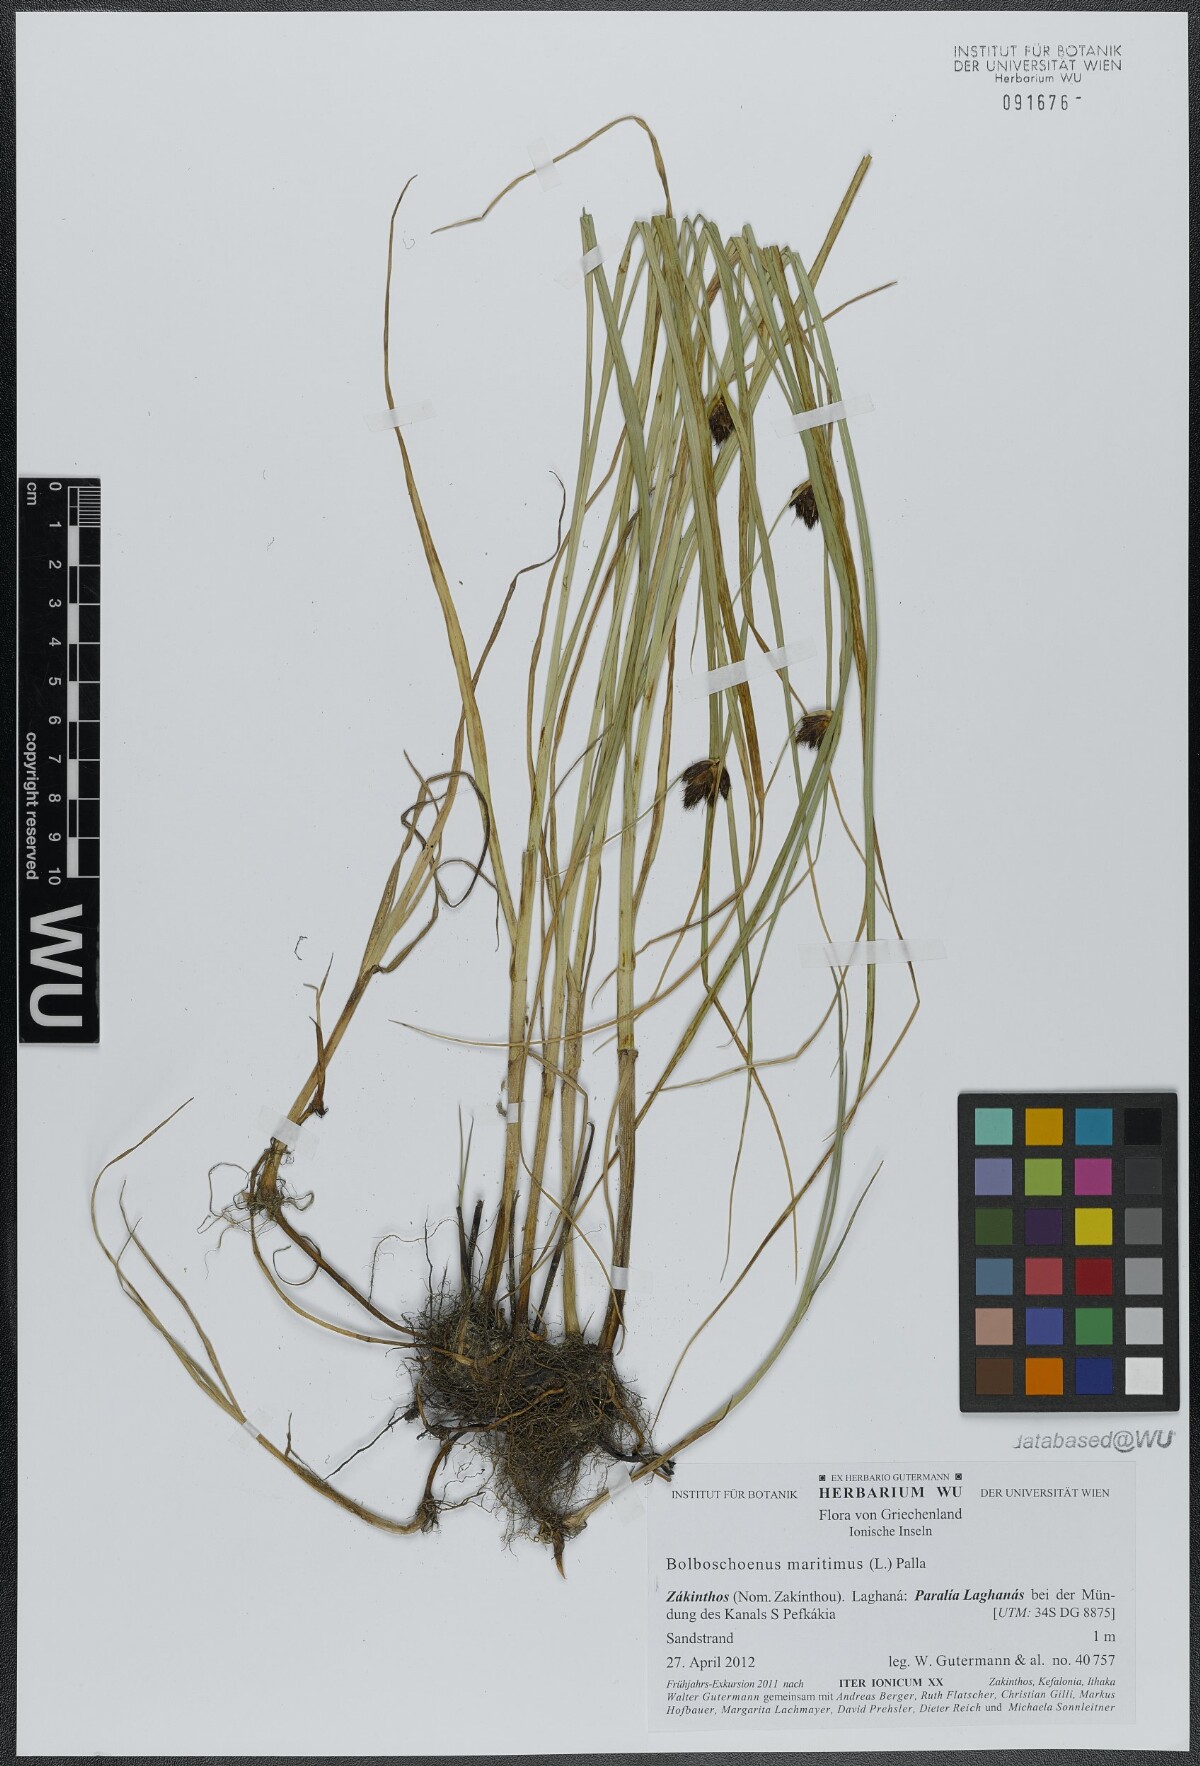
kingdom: Plantae
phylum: Tracheophyta
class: Liliopsida
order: Poales
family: Cyperaceae
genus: Bolboschoenus
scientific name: Bolboschoenus maritimus
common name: Sea club-rush
